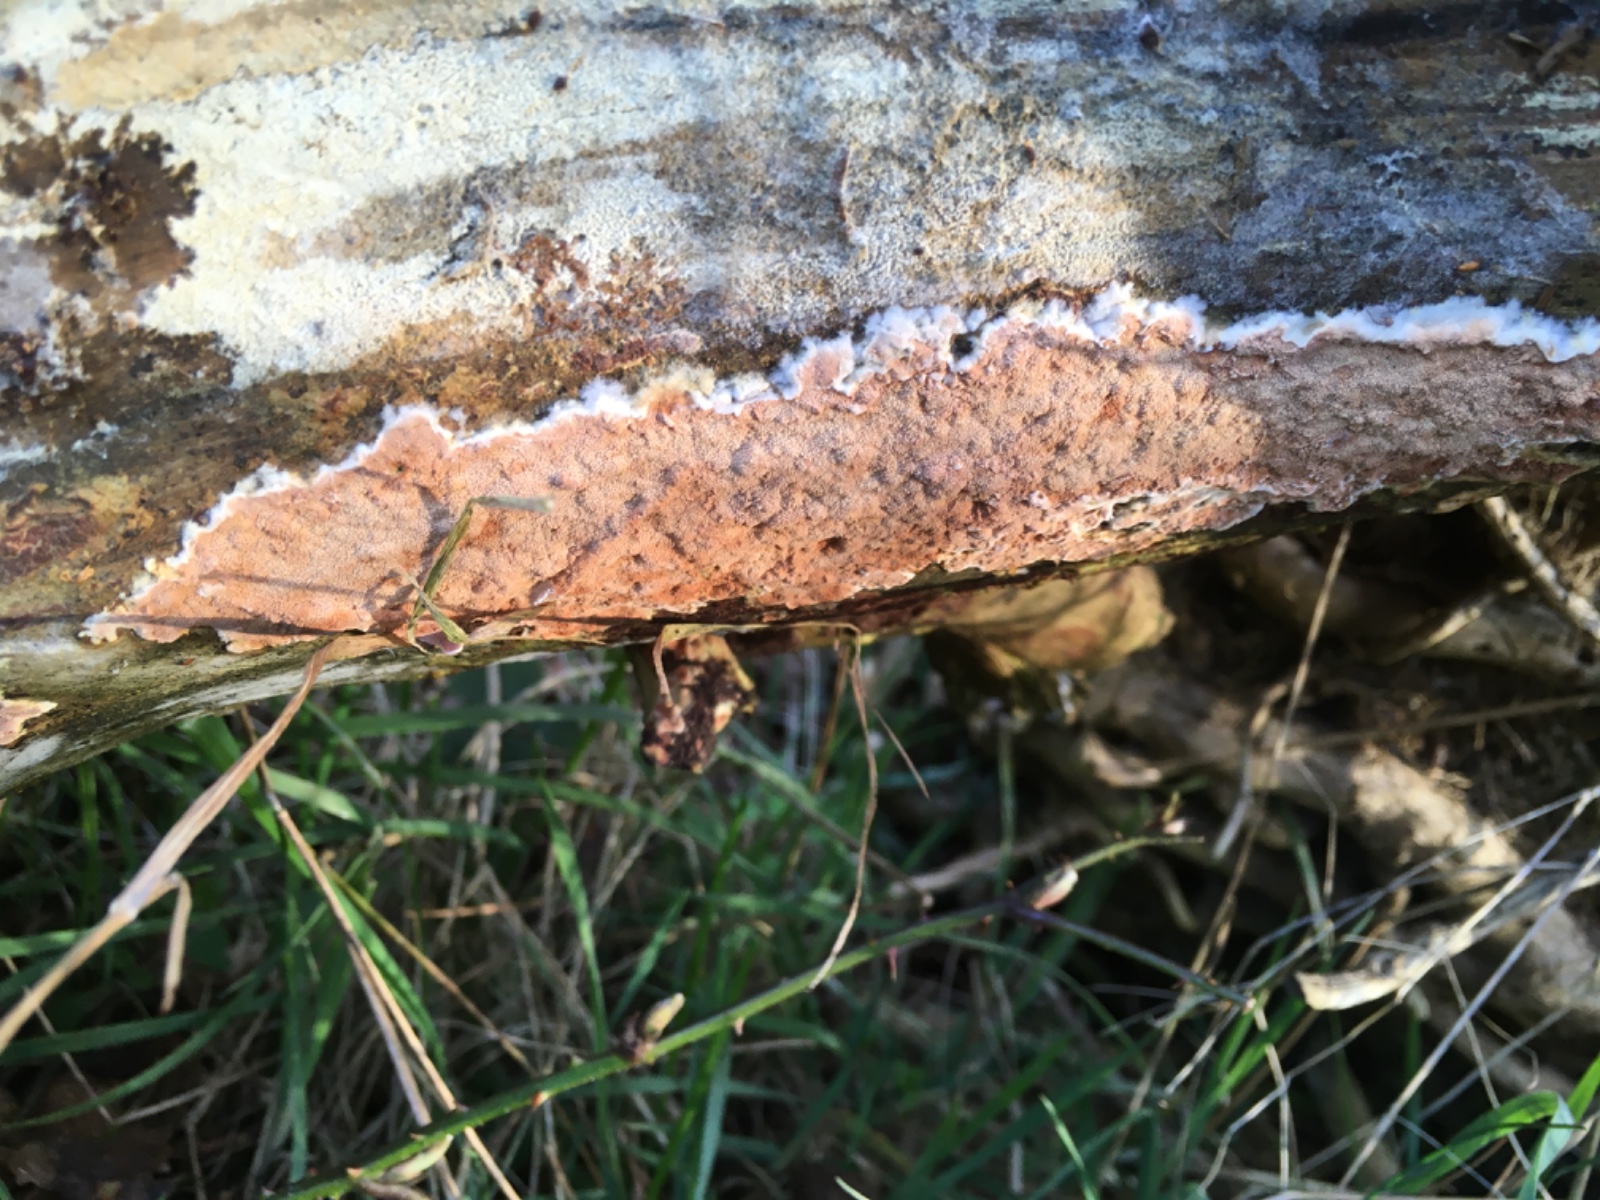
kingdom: Fungi
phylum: Basidiomycota
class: Agaricomycetes
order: Polyporales
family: Irpicaceae
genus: Meruliopsis
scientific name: Meruliopsis taxicola
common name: purpurbrun foldporesvamp
